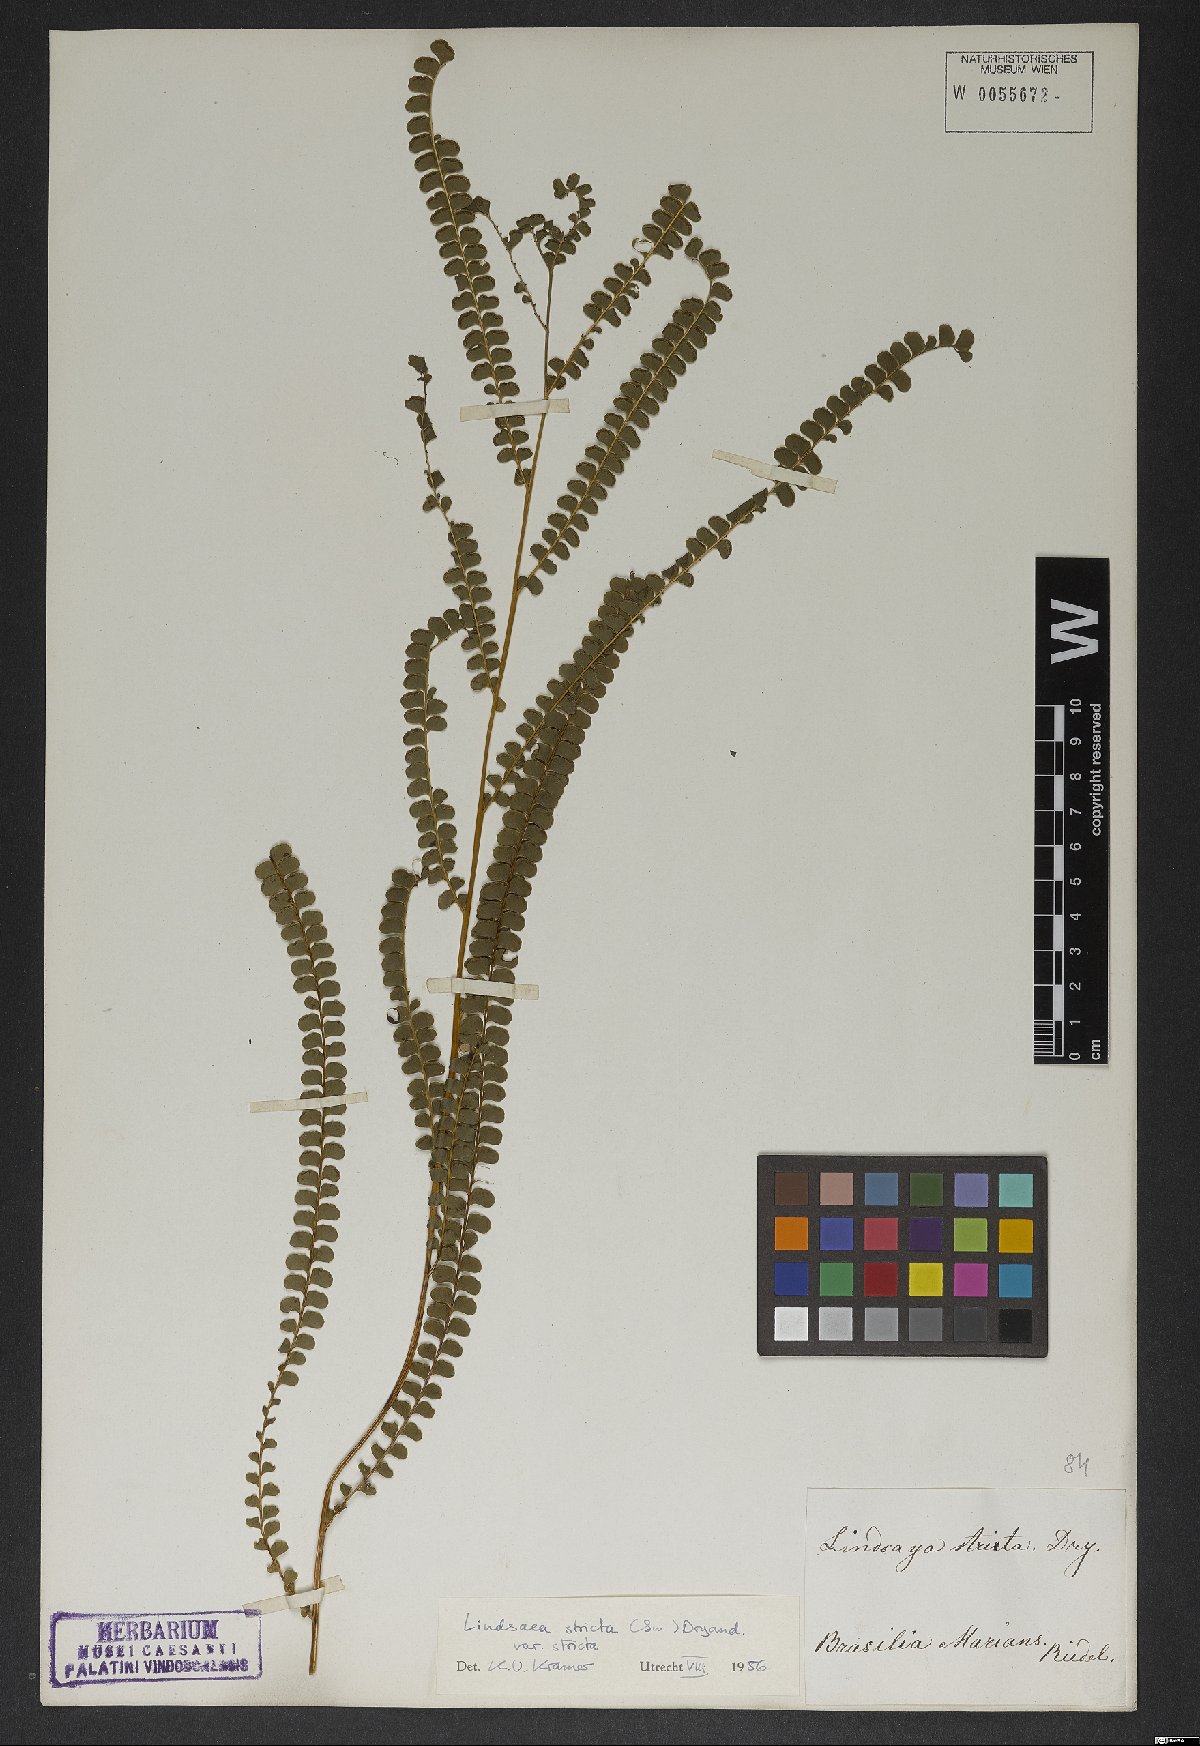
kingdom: Plantae
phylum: Tracheophyta
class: Polypodiopsida
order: Polypodiales
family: Lindsaeaceae
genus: Lindsaea
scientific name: Lindsaea stricta
